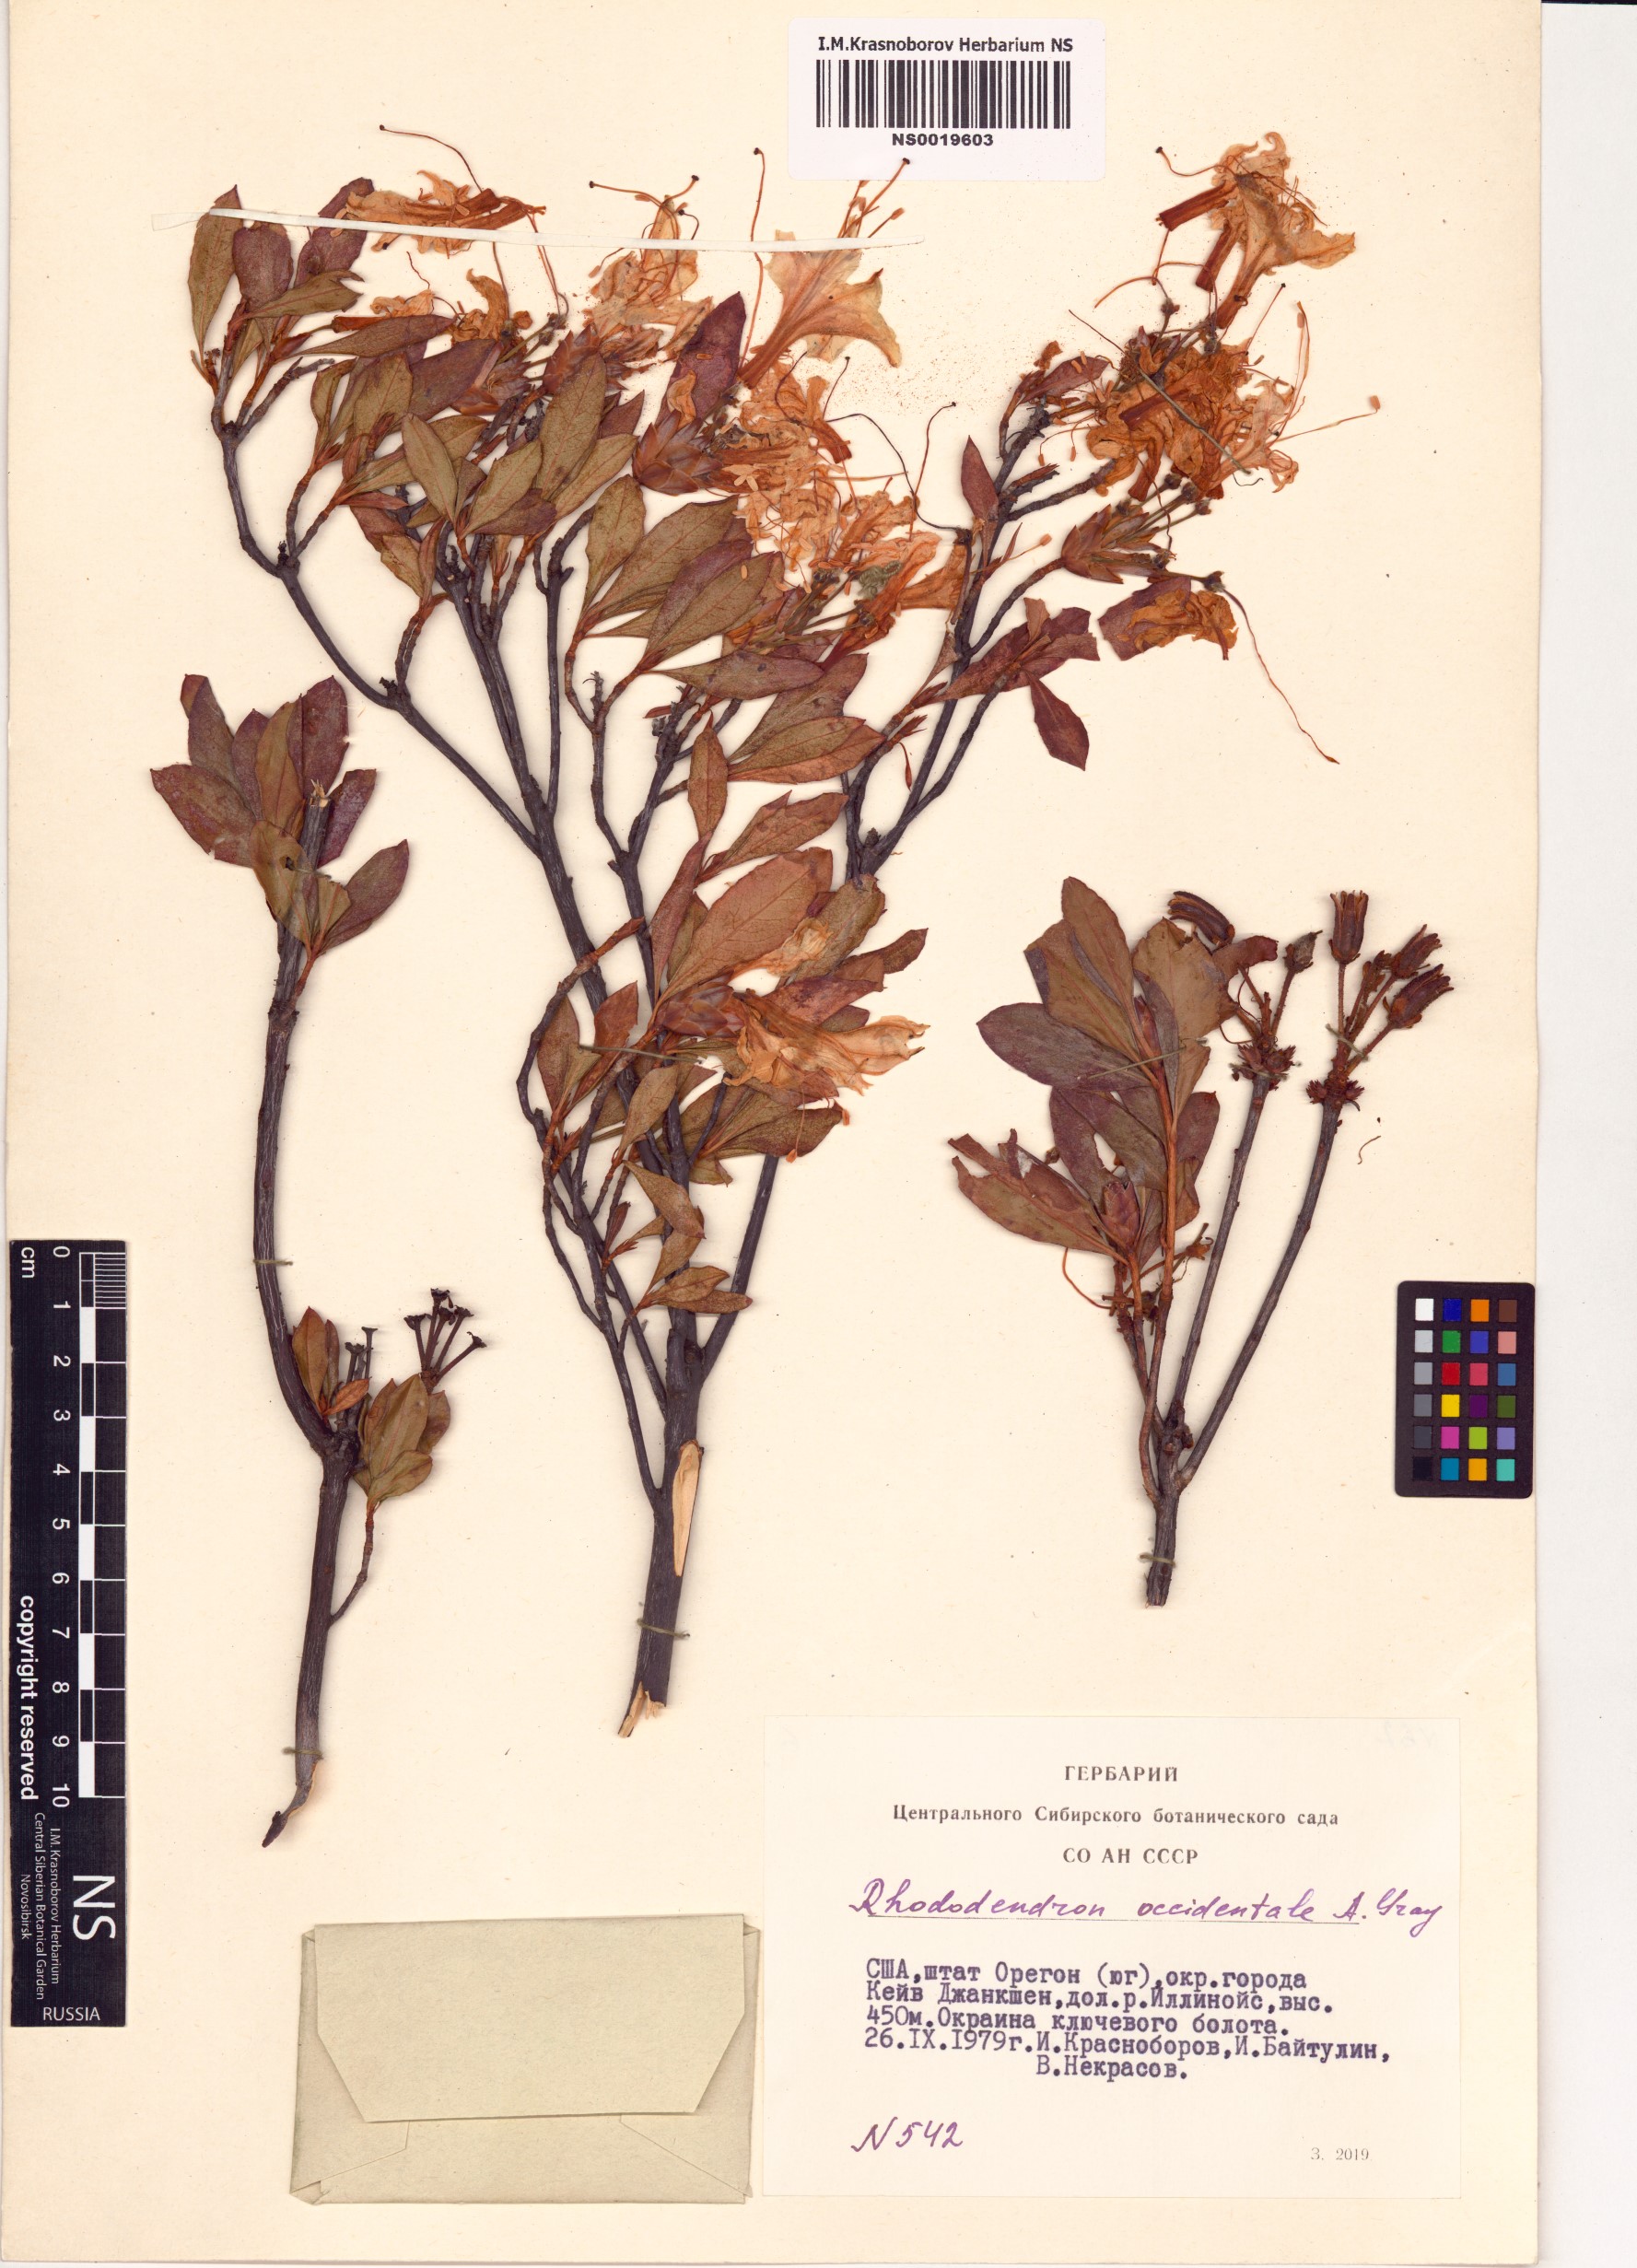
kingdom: Plantae
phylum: Tracheophyta
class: Magnoliopsida
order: Ericales
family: Ericaceae
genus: Rhododendron
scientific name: Rhododendron occidentale
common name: Western azalea
